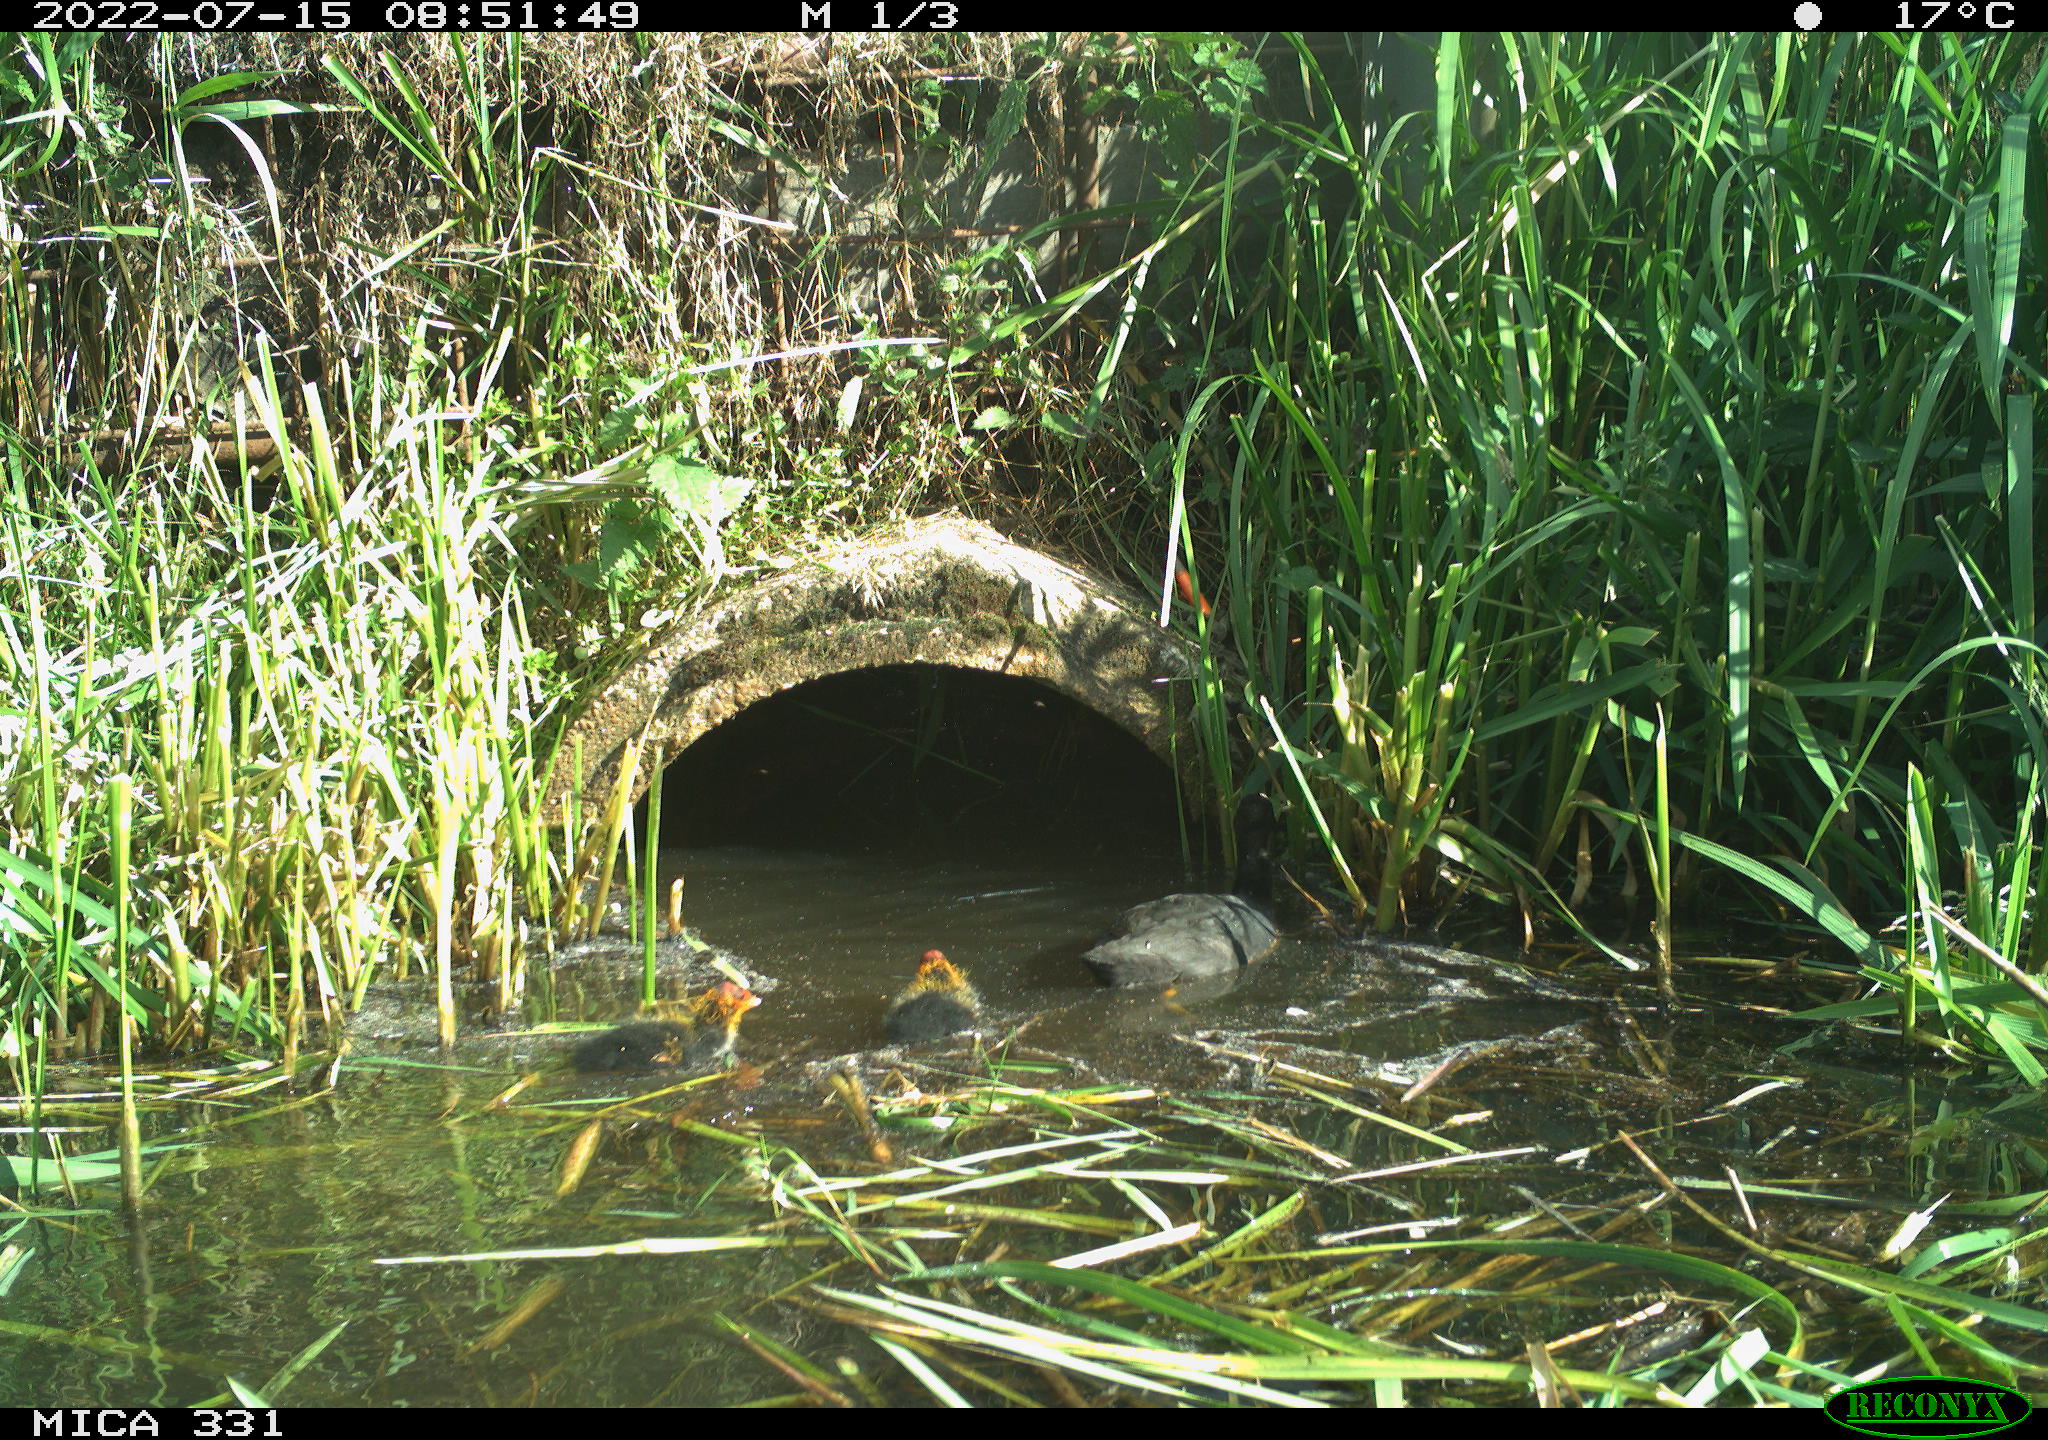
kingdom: Animalia
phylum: Chordata
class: Aves
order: Gruiformes
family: Rallidae
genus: Fulica
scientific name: Fulica atra
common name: Eurasian coot
